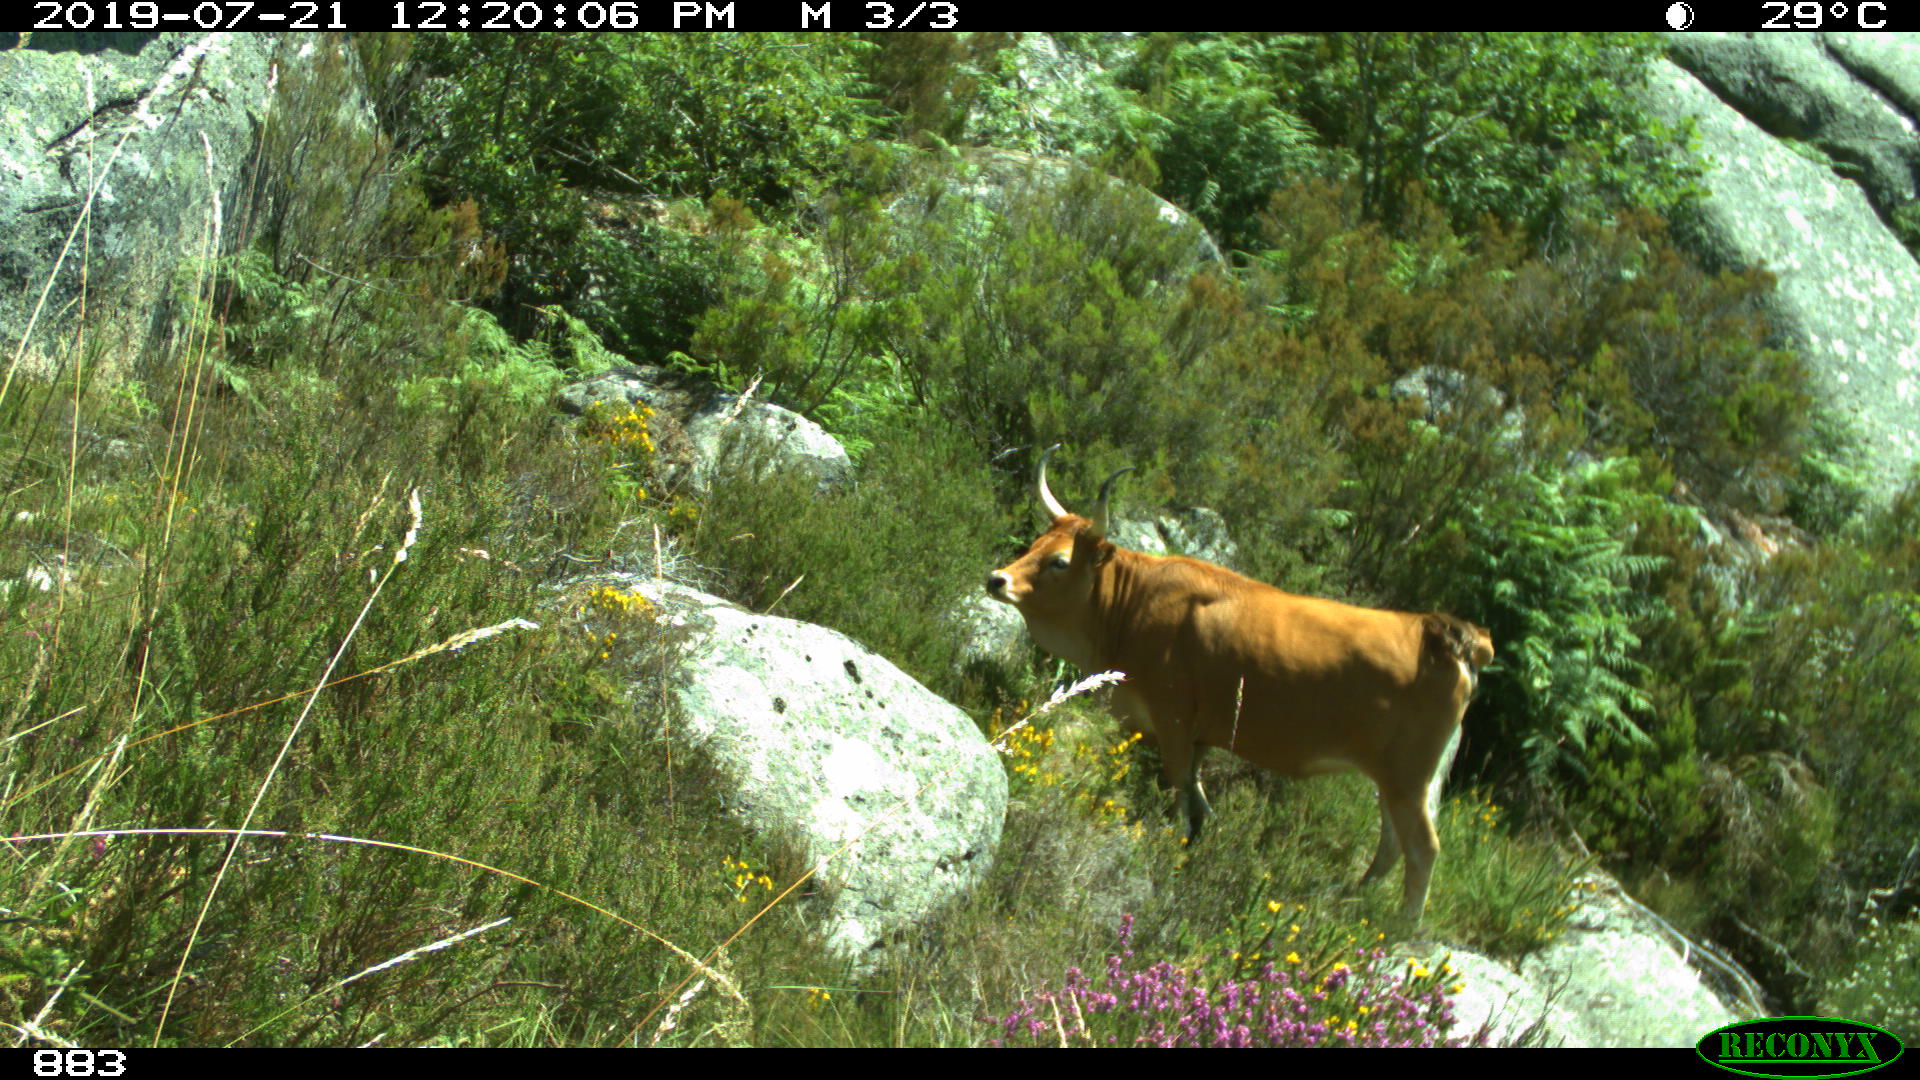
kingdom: Animalia
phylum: Chordata
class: Mammalia
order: Artiodactyla
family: Bovidae
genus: Bos
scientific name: Bos taurus
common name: Domesticated cattle
